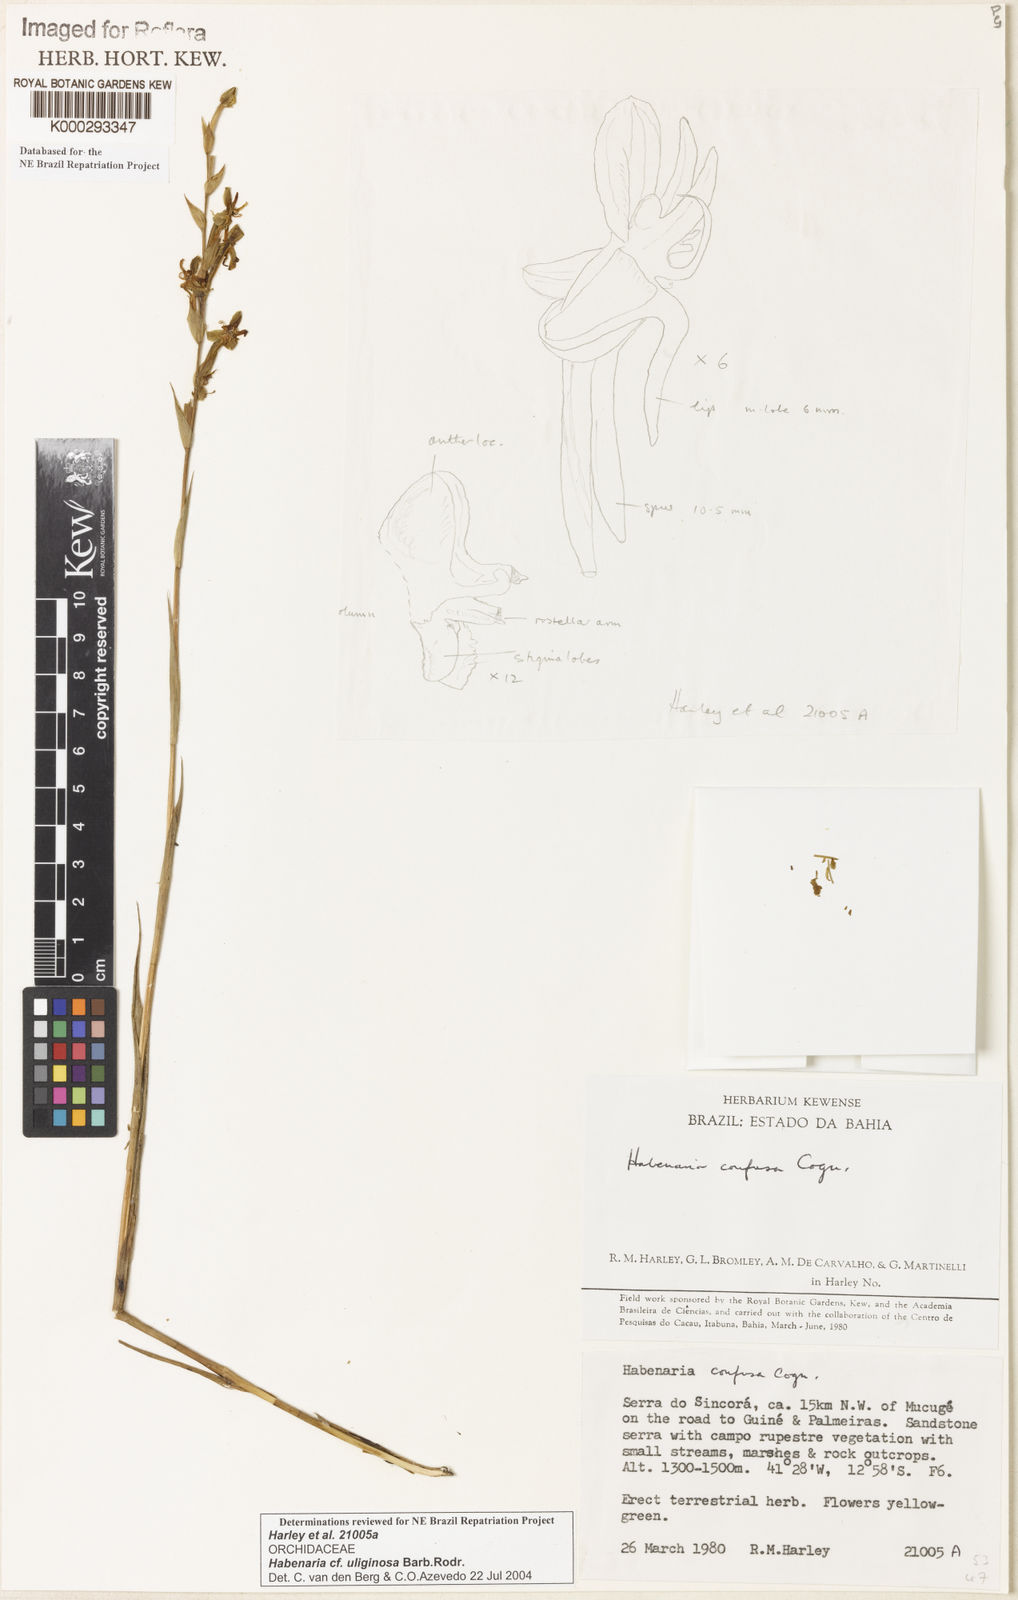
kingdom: Plantae
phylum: Tracheophyta
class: Liliopsida
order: Asparagales
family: Orchidaceae
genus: Habenaria
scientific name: Habenaria
